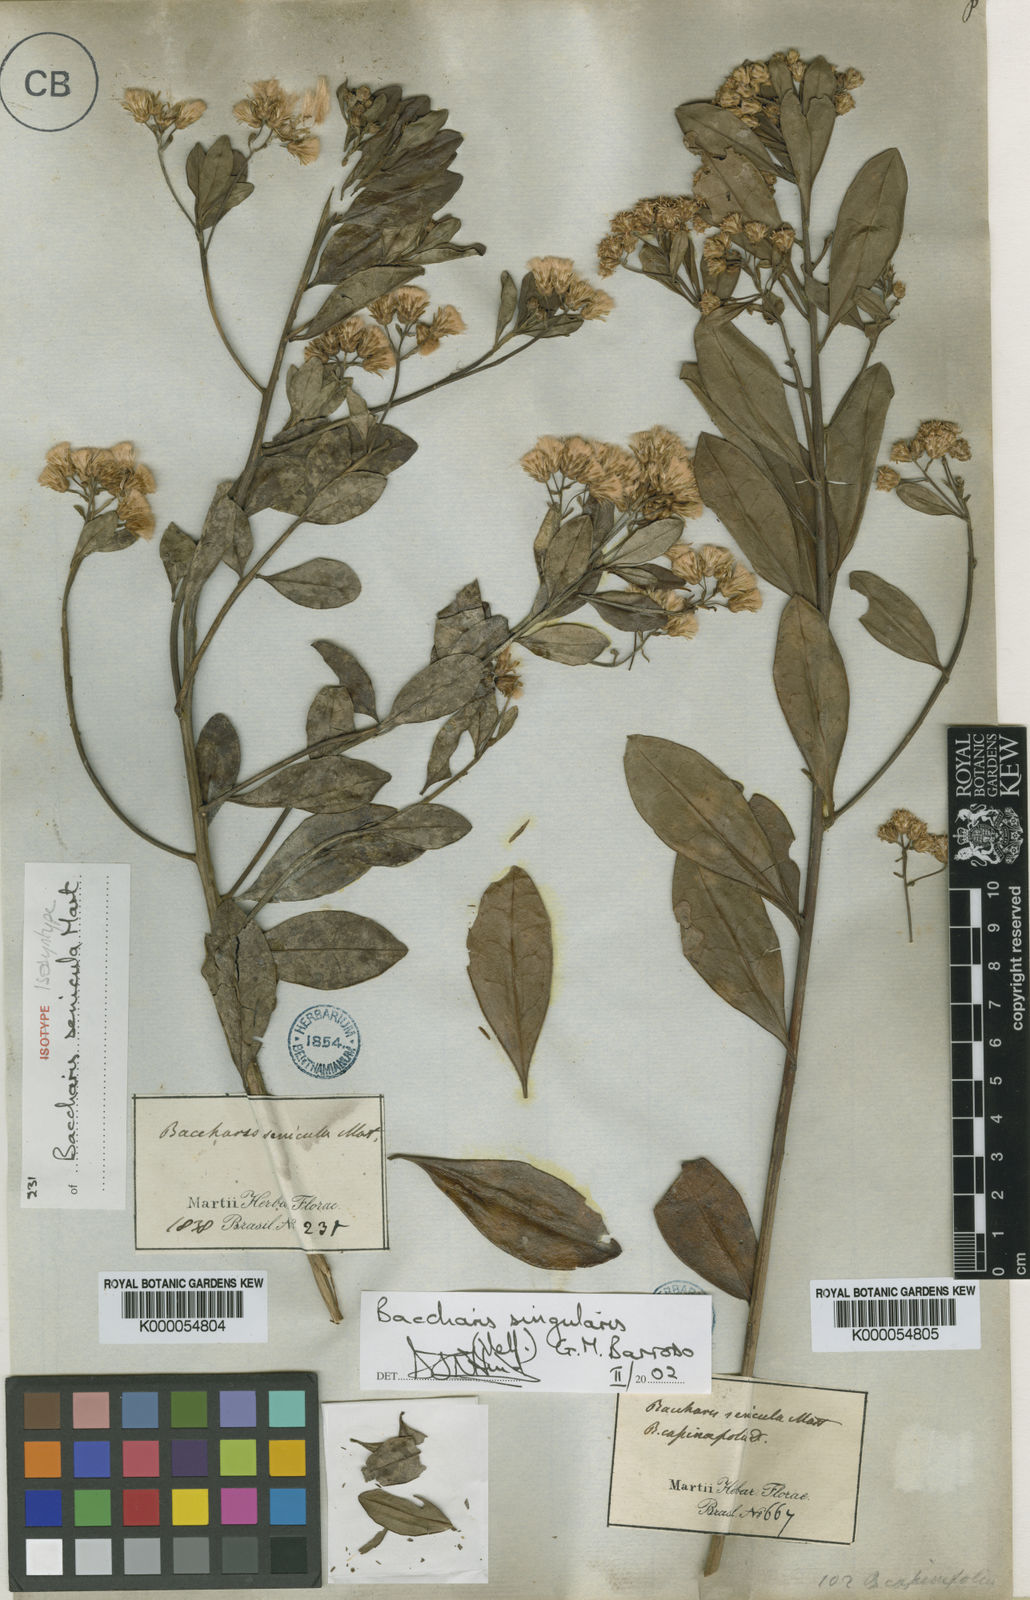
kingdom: Plantae
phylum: Tracheophyta
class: Magnoliopsida
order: Asterales
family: Asteraceae
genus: Baccharis
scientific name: Baccharis singularis
